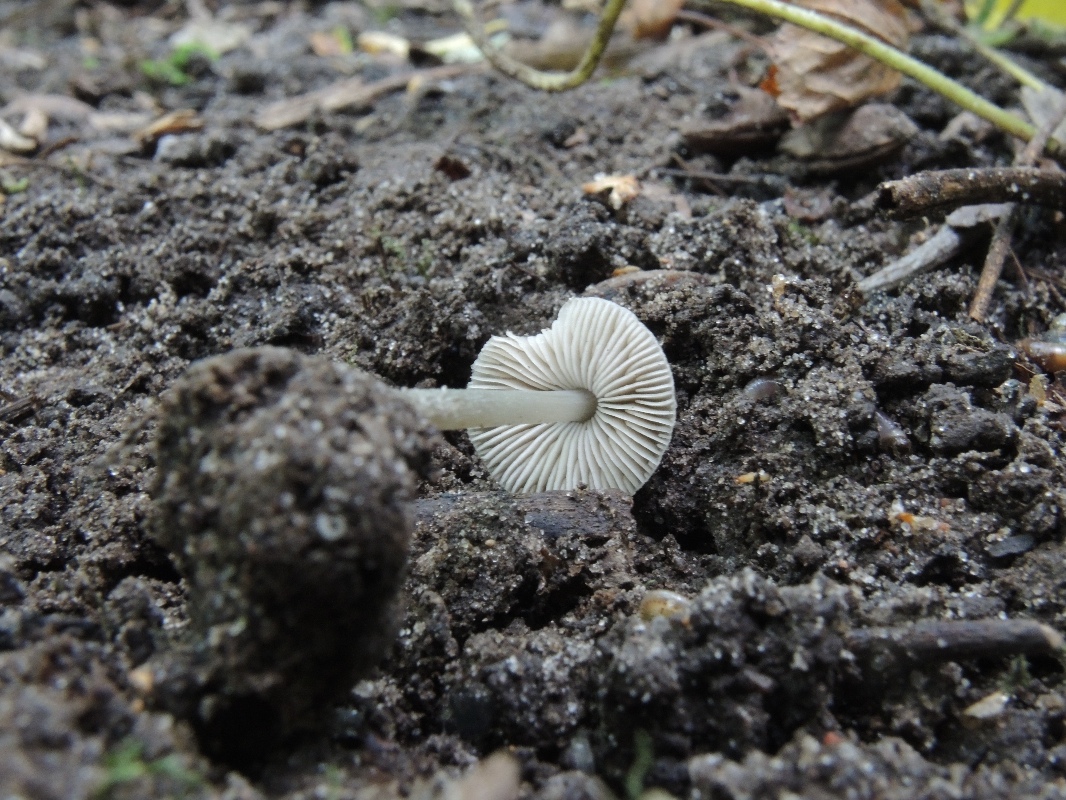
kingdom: Fungi
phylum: Basidiomycota
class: Agaricomycetes
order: Agaricales
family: Pluteaceae
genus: Pluteus
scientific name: Pluteus
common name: pudret skærmhat
